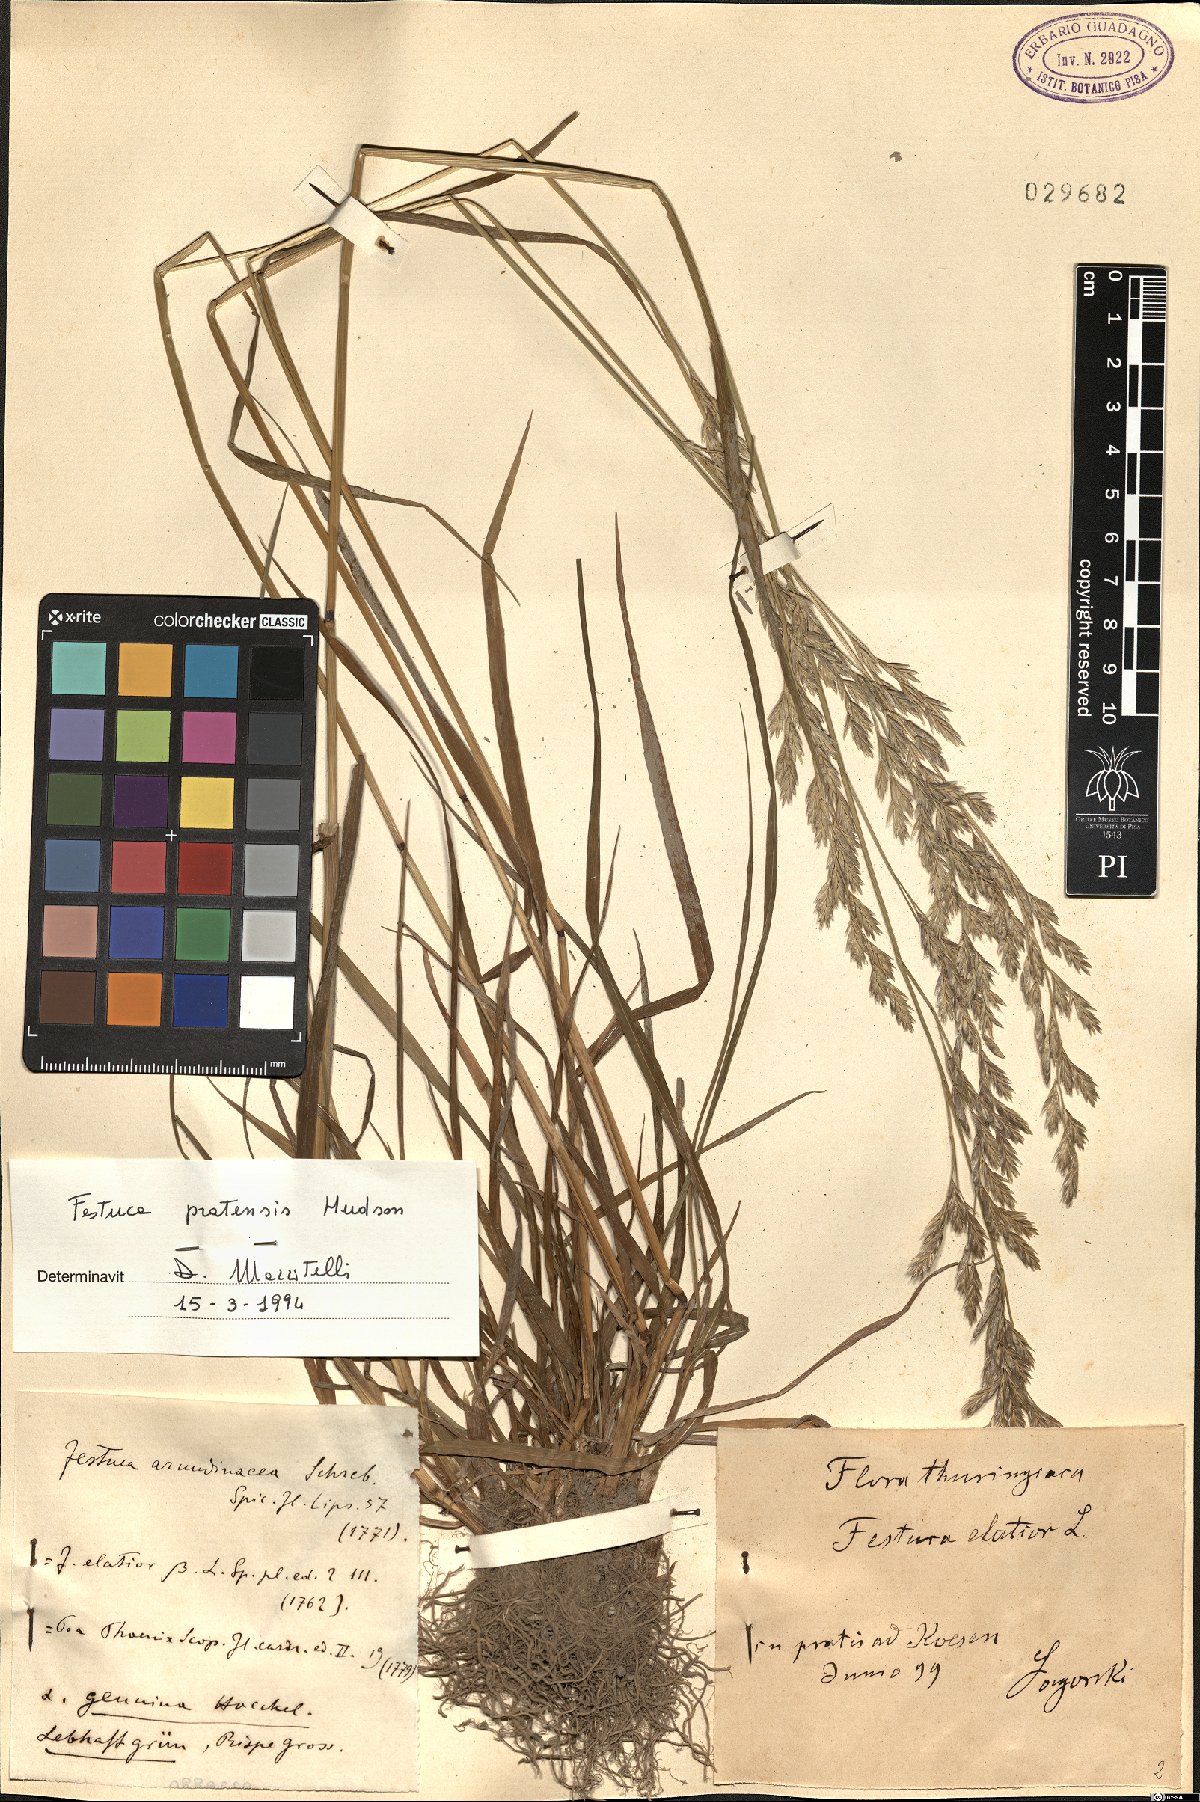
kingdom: Plantae
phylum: Tracheophyta
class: Liliopsida
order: Poales
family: Poaceae
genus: Lolium
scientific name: Lolium pratense
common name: Dover grass
